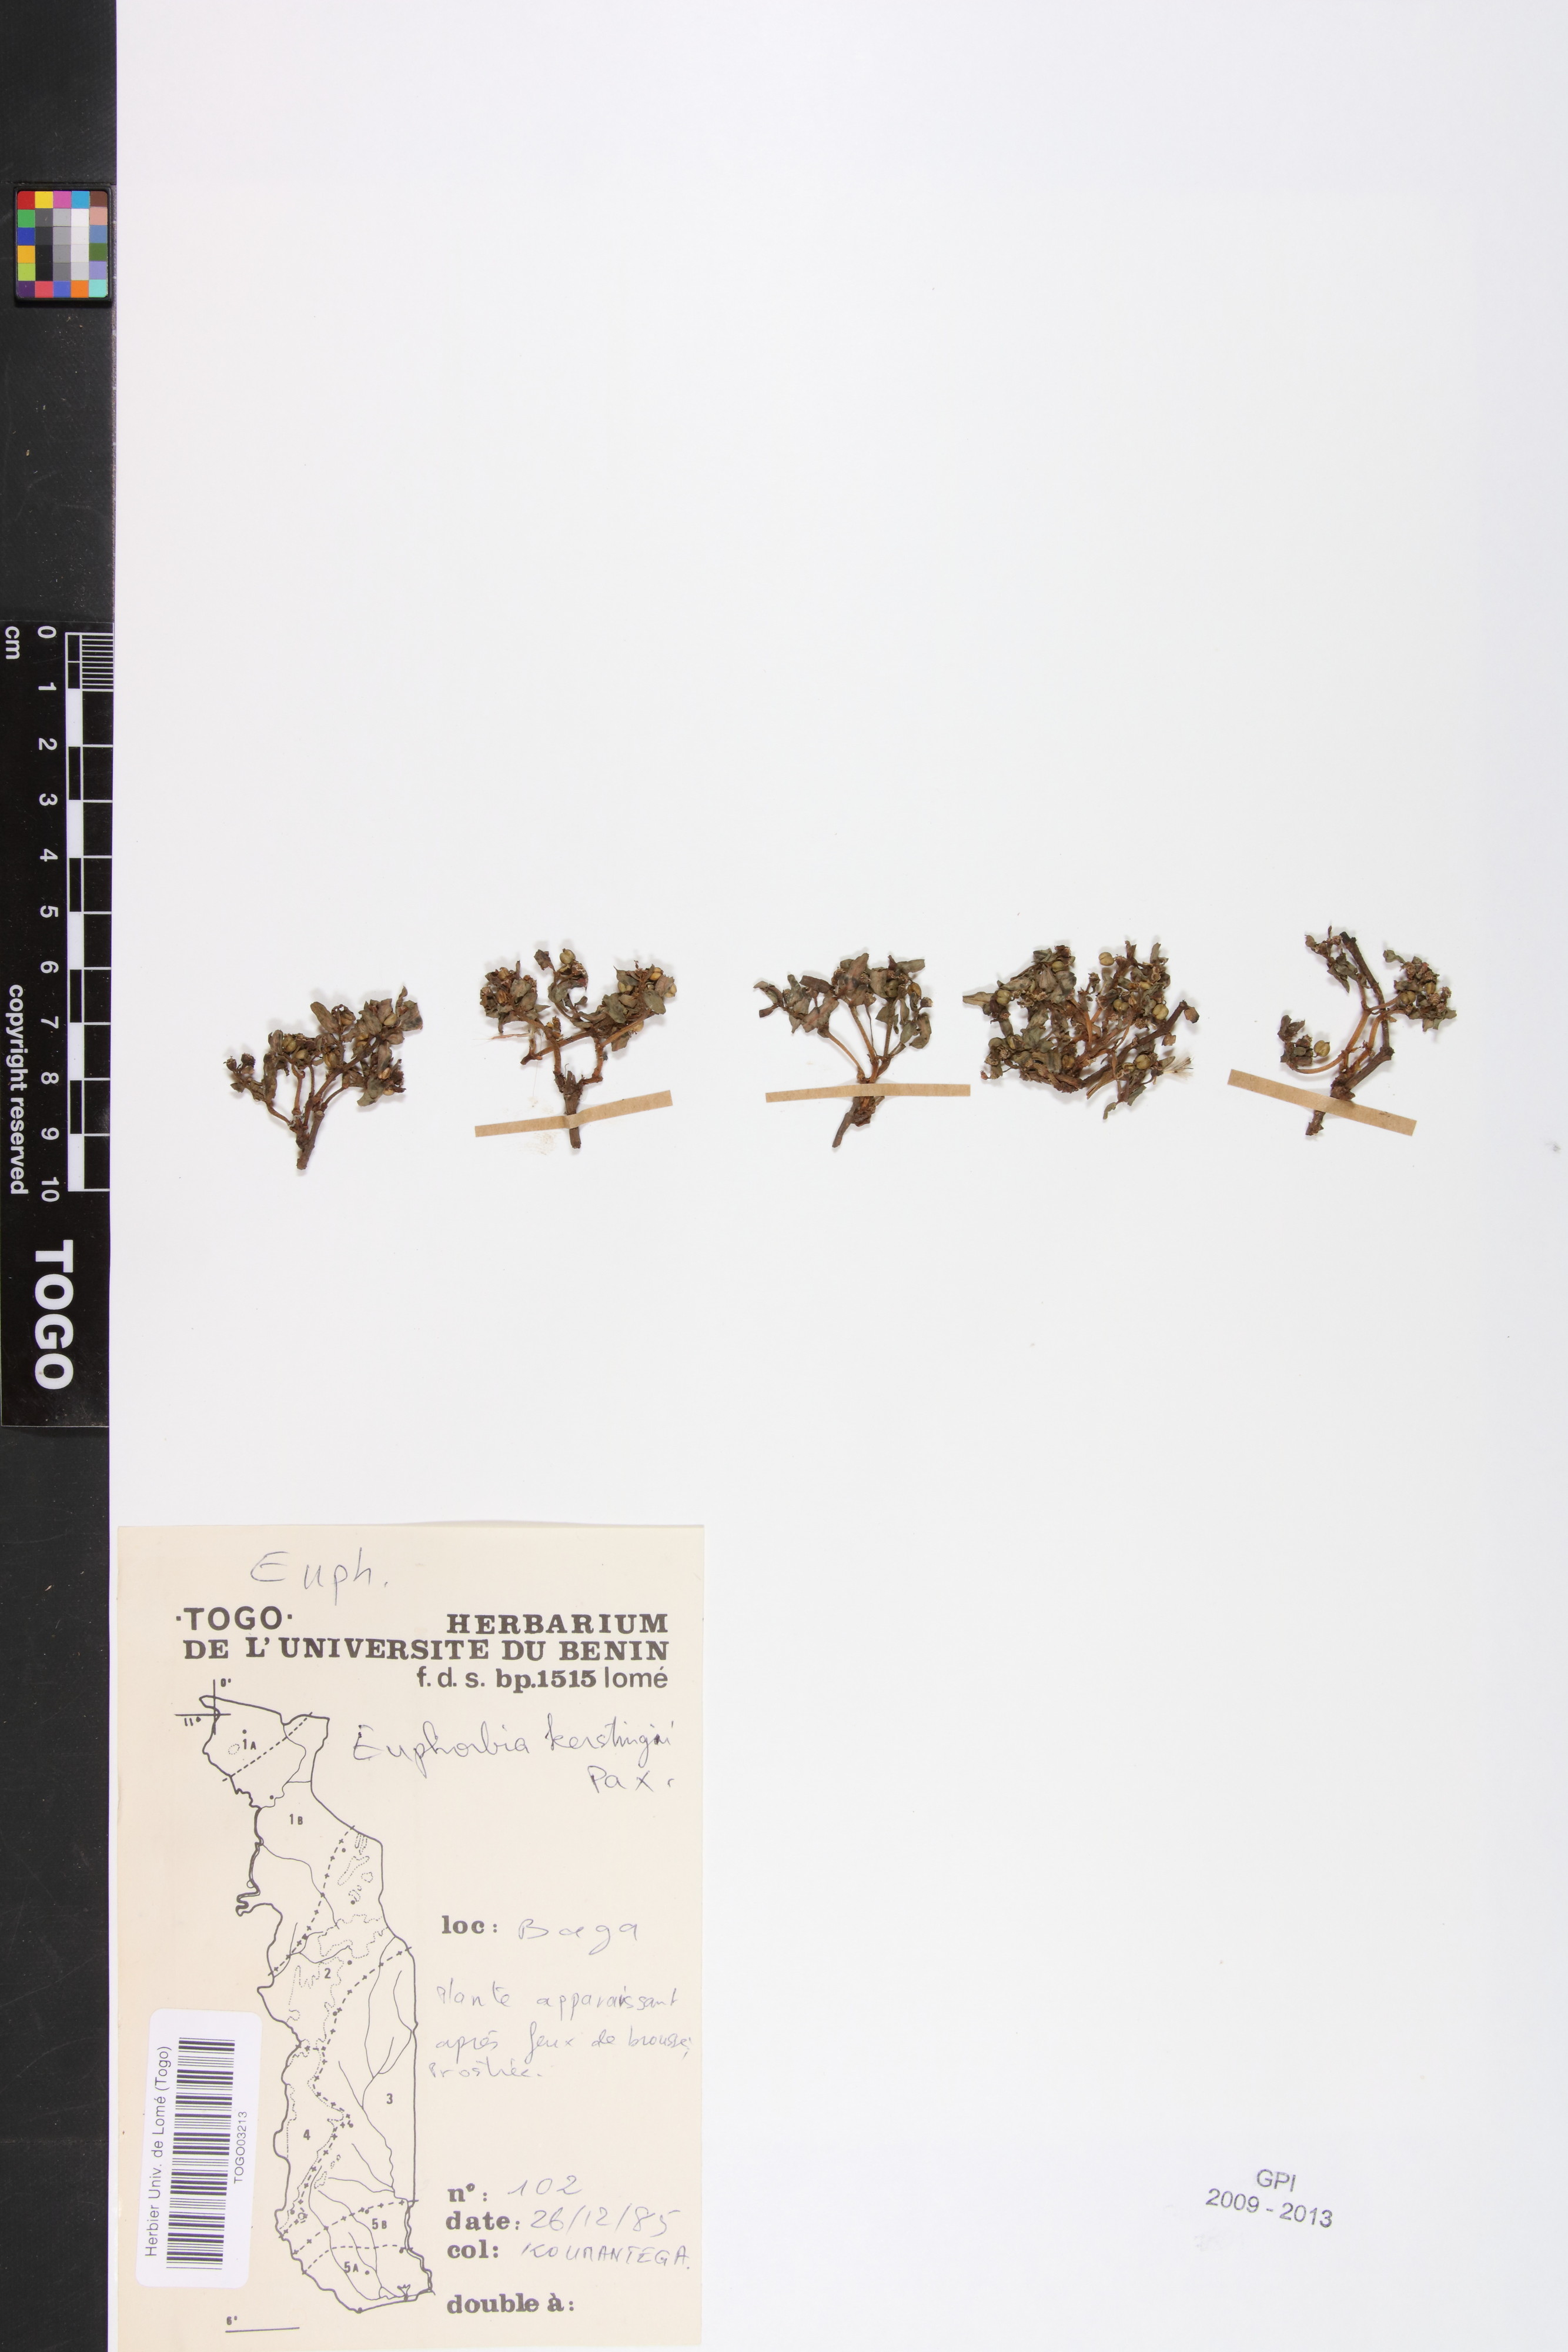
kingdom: Plantae
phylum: Tracheophyta
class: Magnoliopsida
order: Malpighiales
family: Euphorbiaceae
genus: Euphorbia
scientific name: Euphorbia kerstingii
